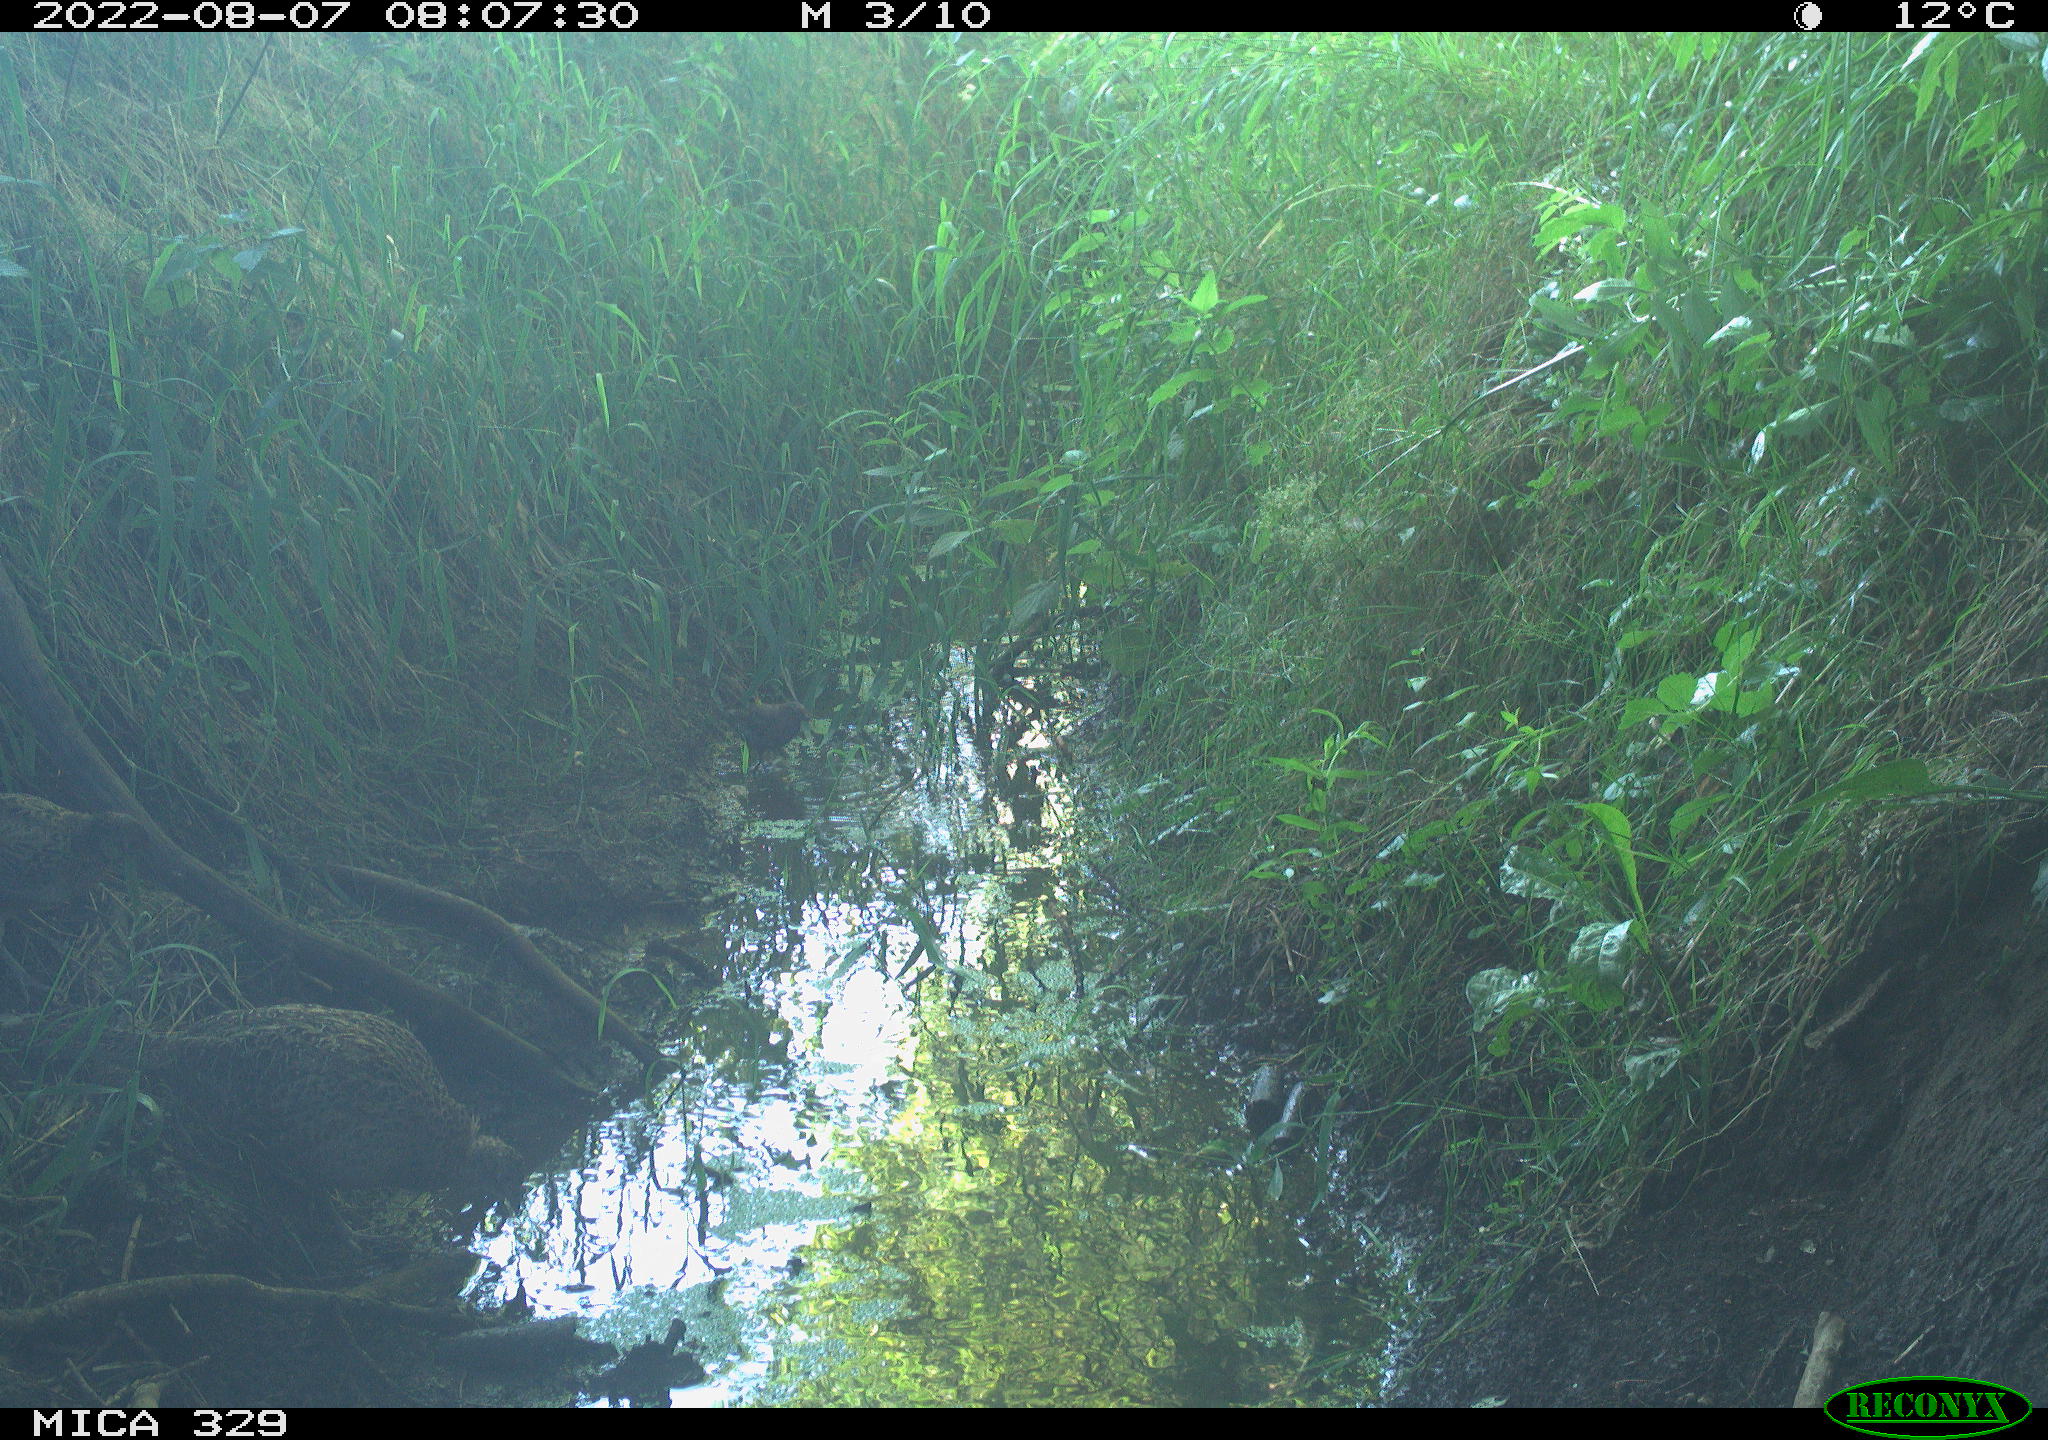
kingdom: Animalia
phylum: Chordata
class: Aves
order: Galliformes
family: Phasianidae
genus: Phasianus
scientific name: Phasianus colchicus
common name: Common pheasant
